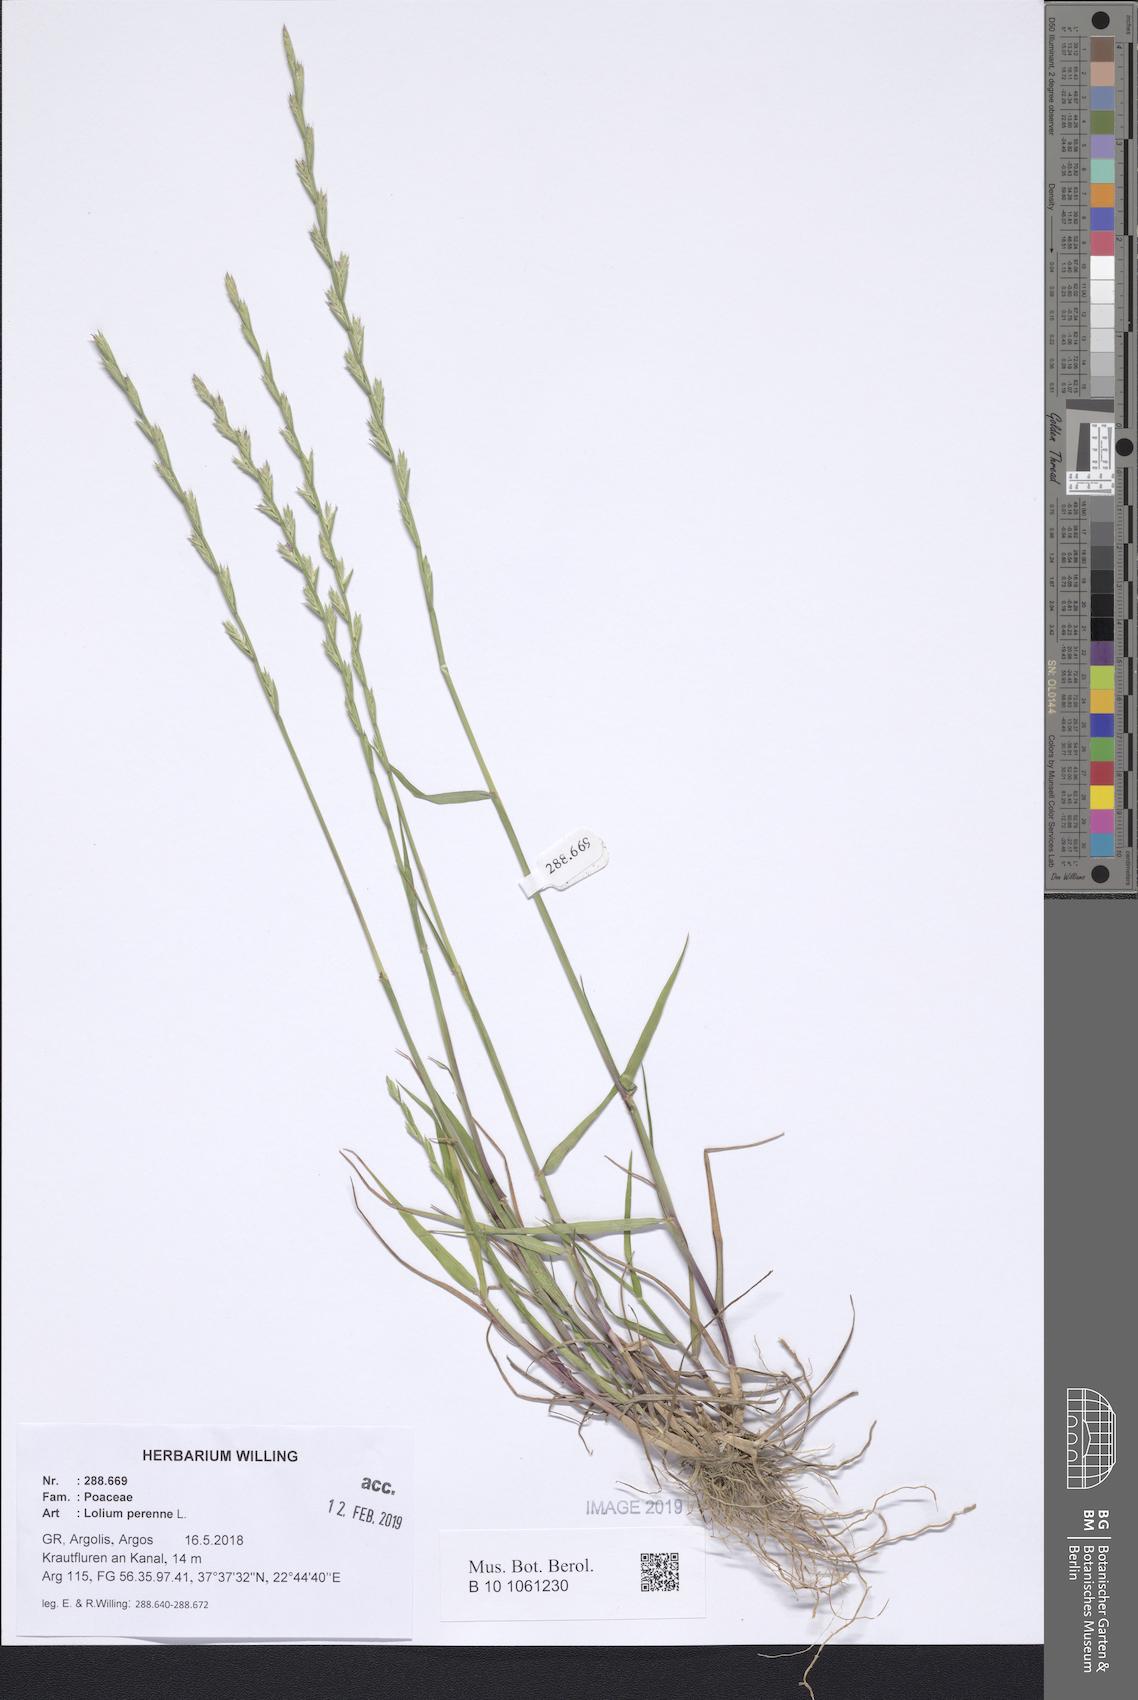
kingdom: Plantae
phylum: Tracheophyta
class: Liliopsida
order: Poales
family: Poaceae
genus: Lolium
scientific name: Lolium perenne
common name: Perennial ryegrass
